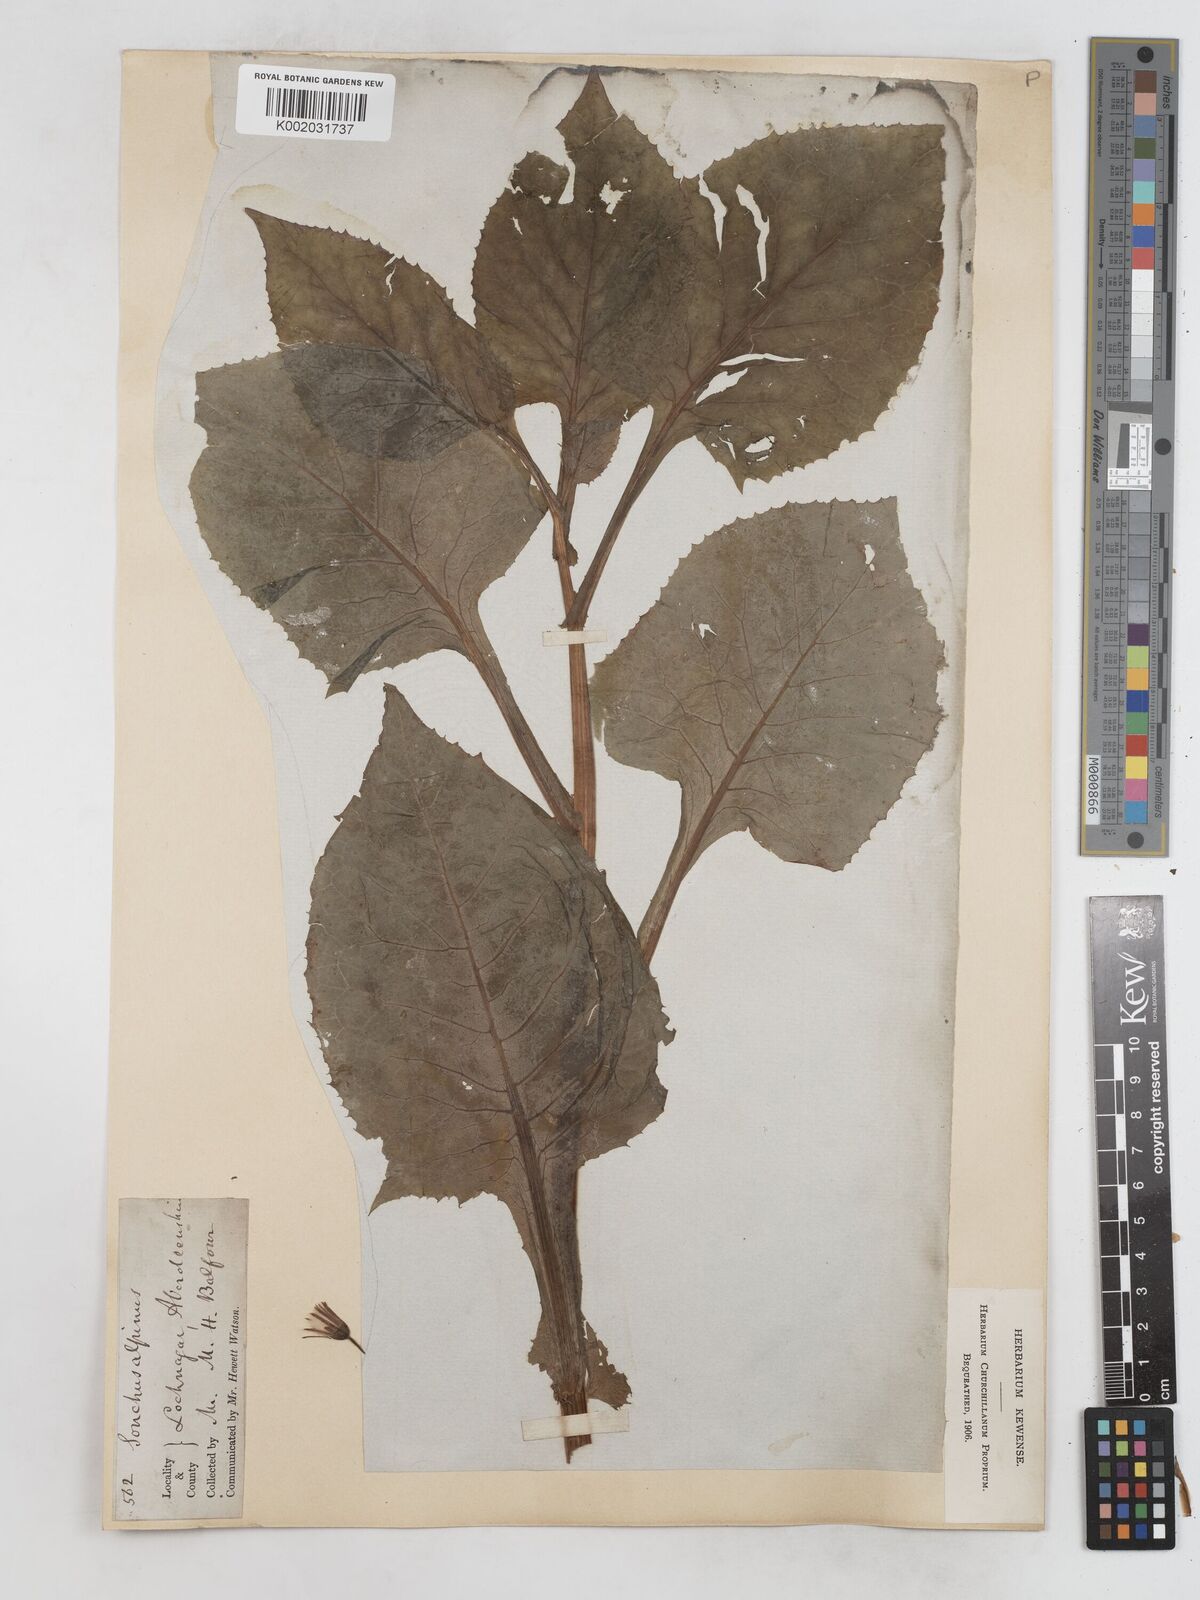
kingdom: Plantae
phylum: Tracheophyta
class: Magnoliopsida
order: Asterales
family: Asteraceae
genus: Cicerbita
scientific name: Cicerbita alpina
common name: Alpine blue-sow-thistle
